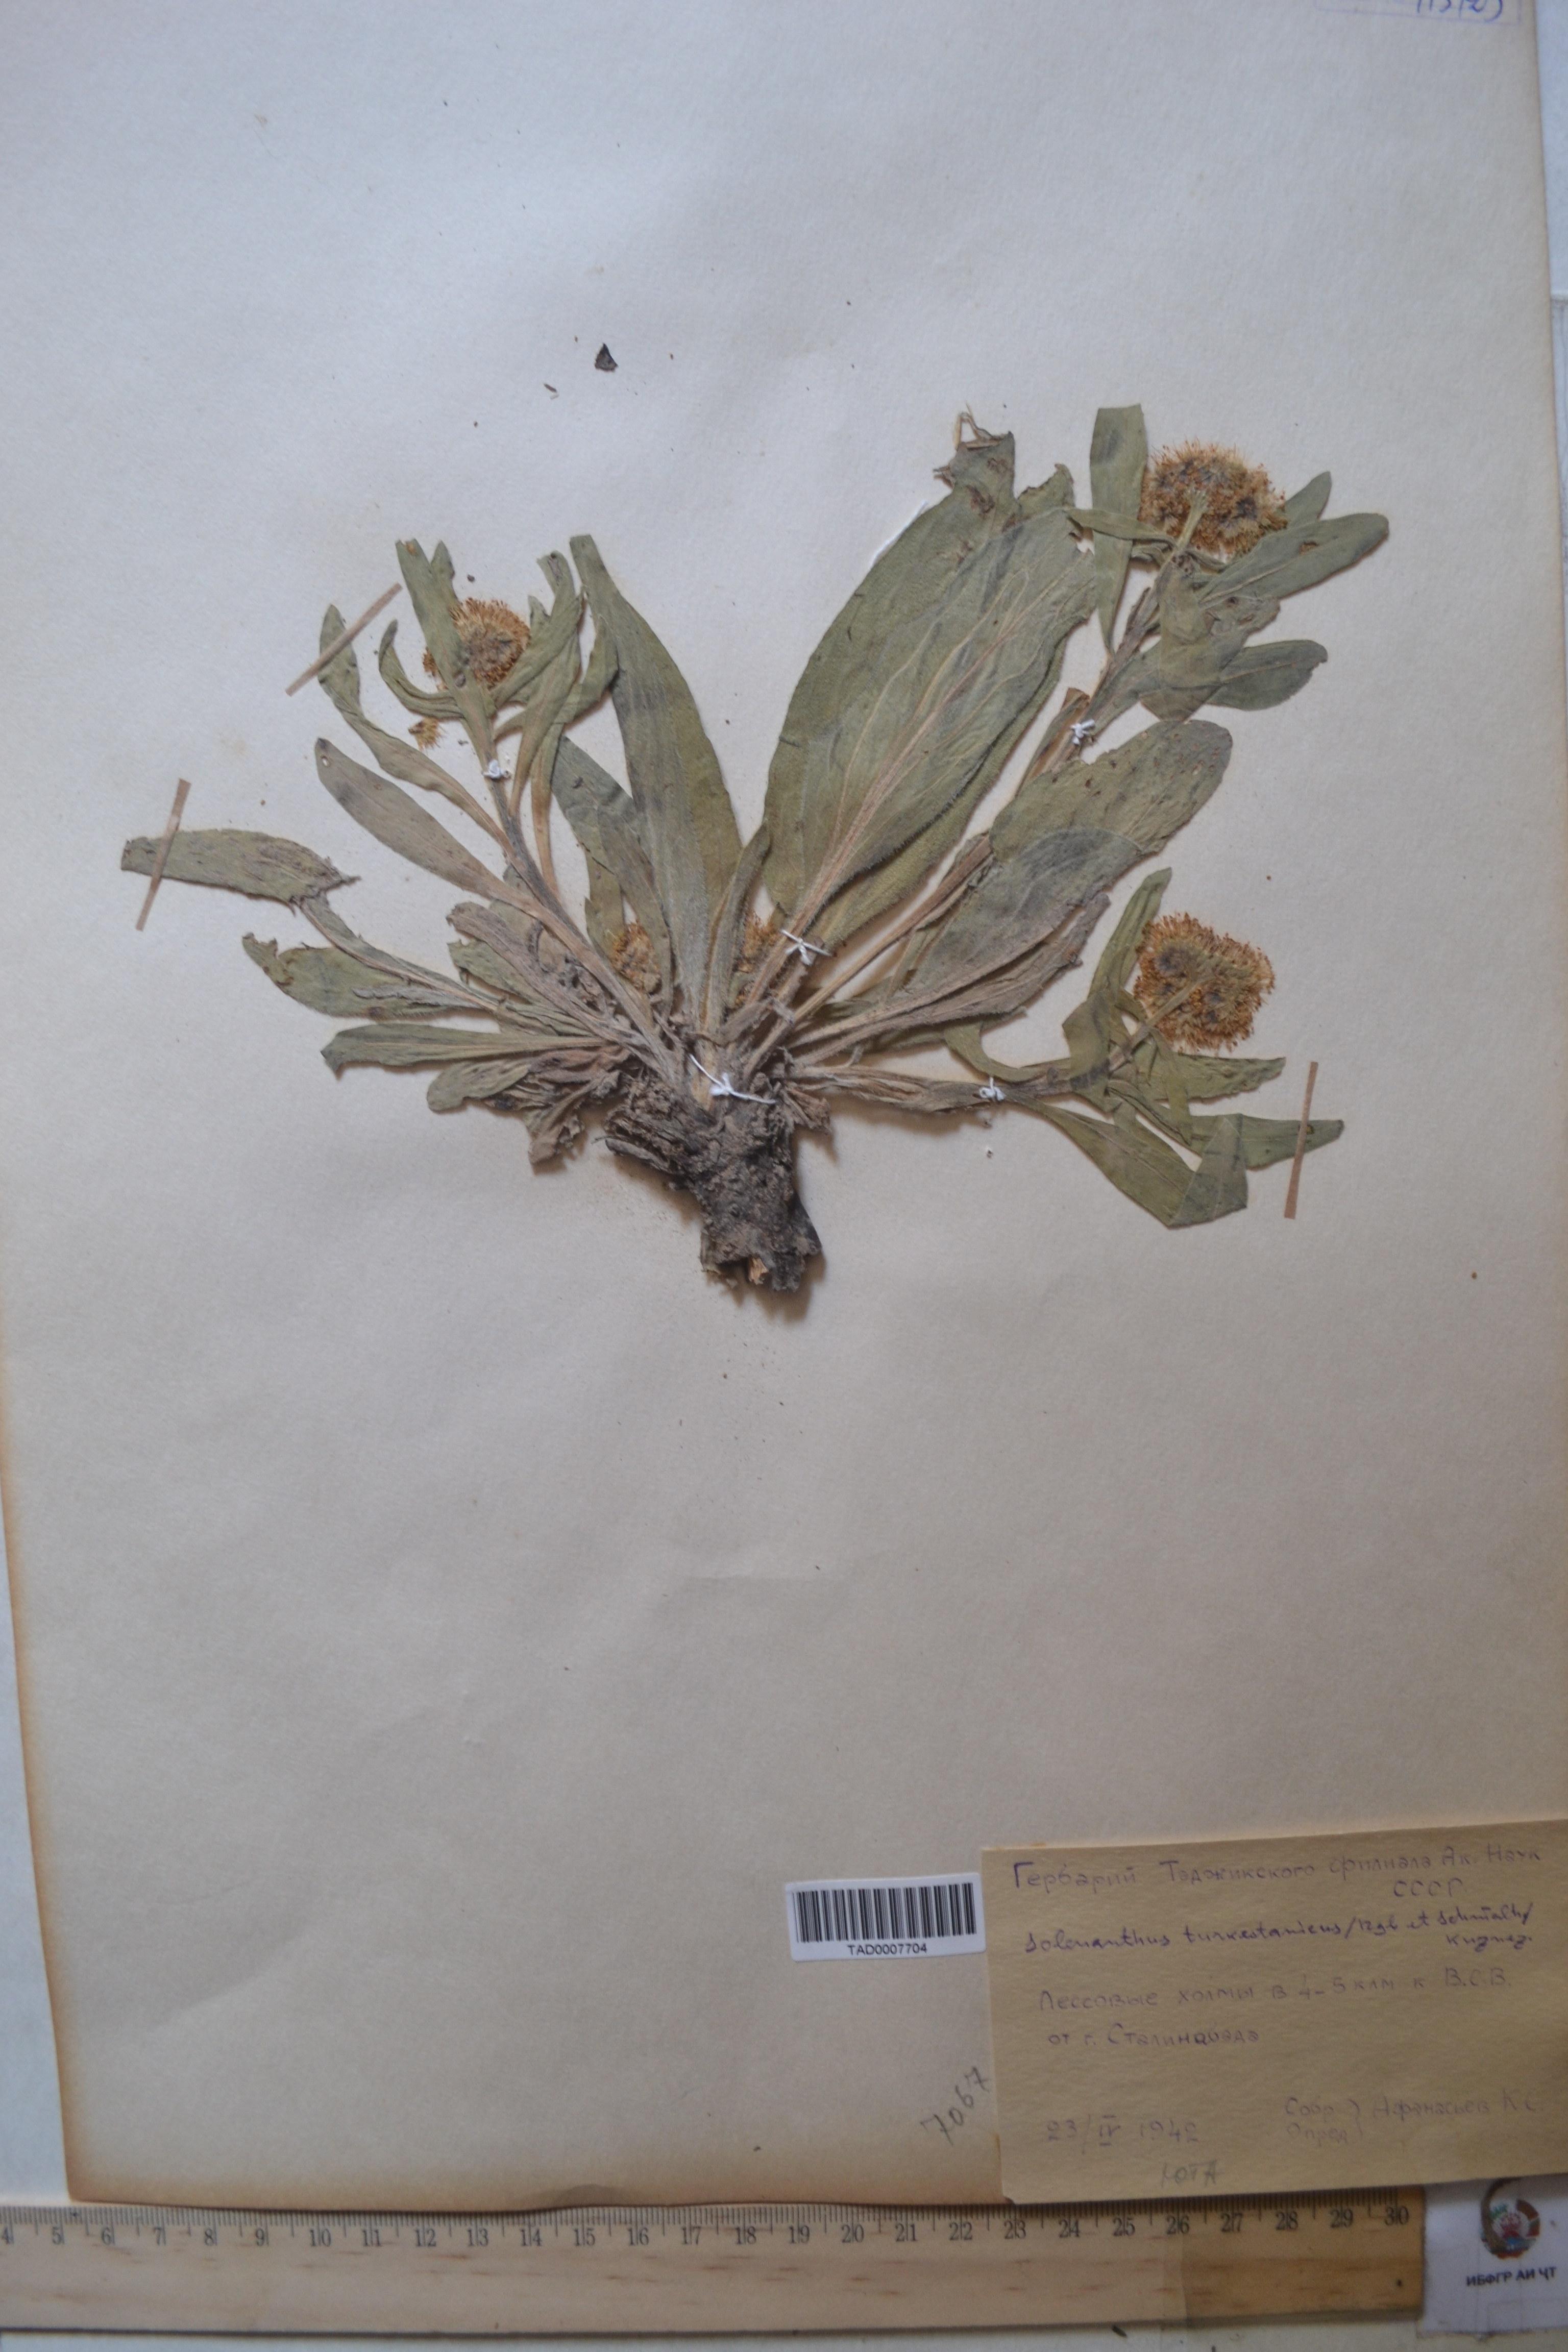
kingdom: Plantae
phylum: Tracheophyta
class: Magnoliopsida
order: Boraginales
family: Boraginaceae
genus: Solenanthus
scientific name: Solenanthus turkestanicus
